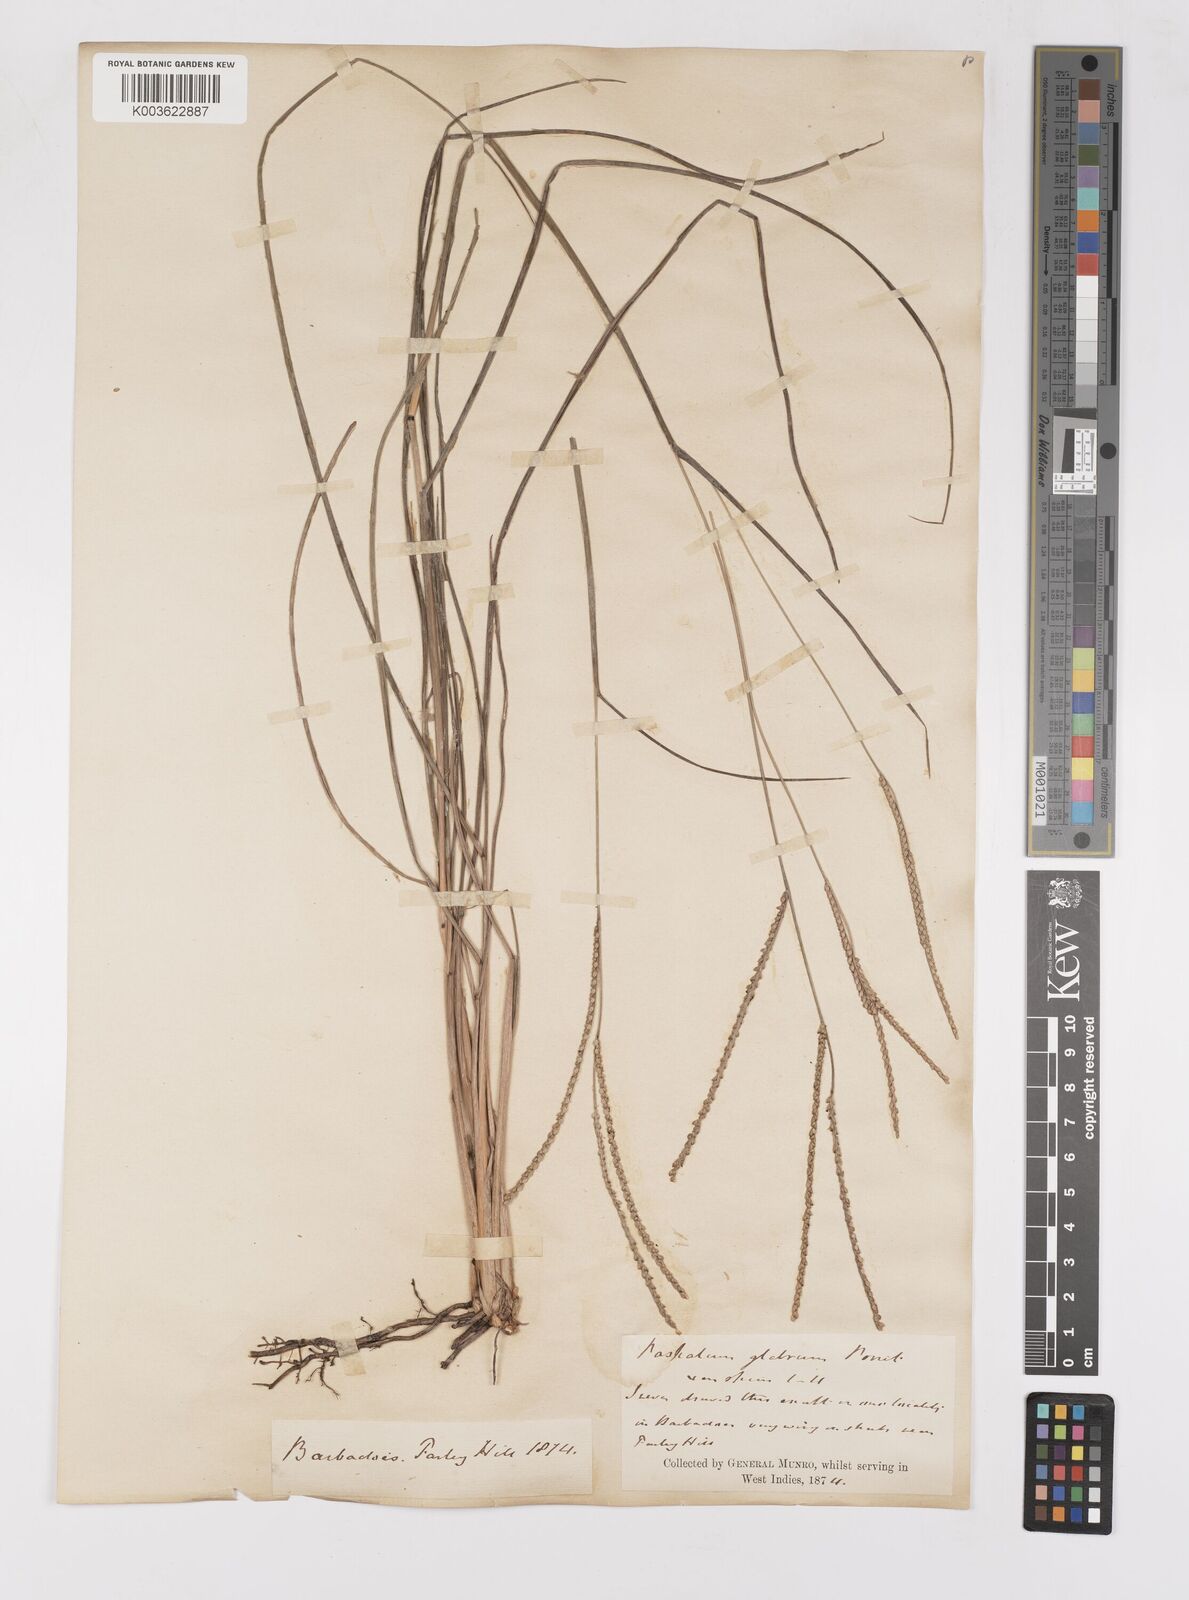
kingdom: Plantae
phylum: Tracheophyta
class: Liliopsida
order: Poales
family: Poaceae
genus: Paspalum
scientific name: Paspalum laxum
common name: Coconut paspalum
